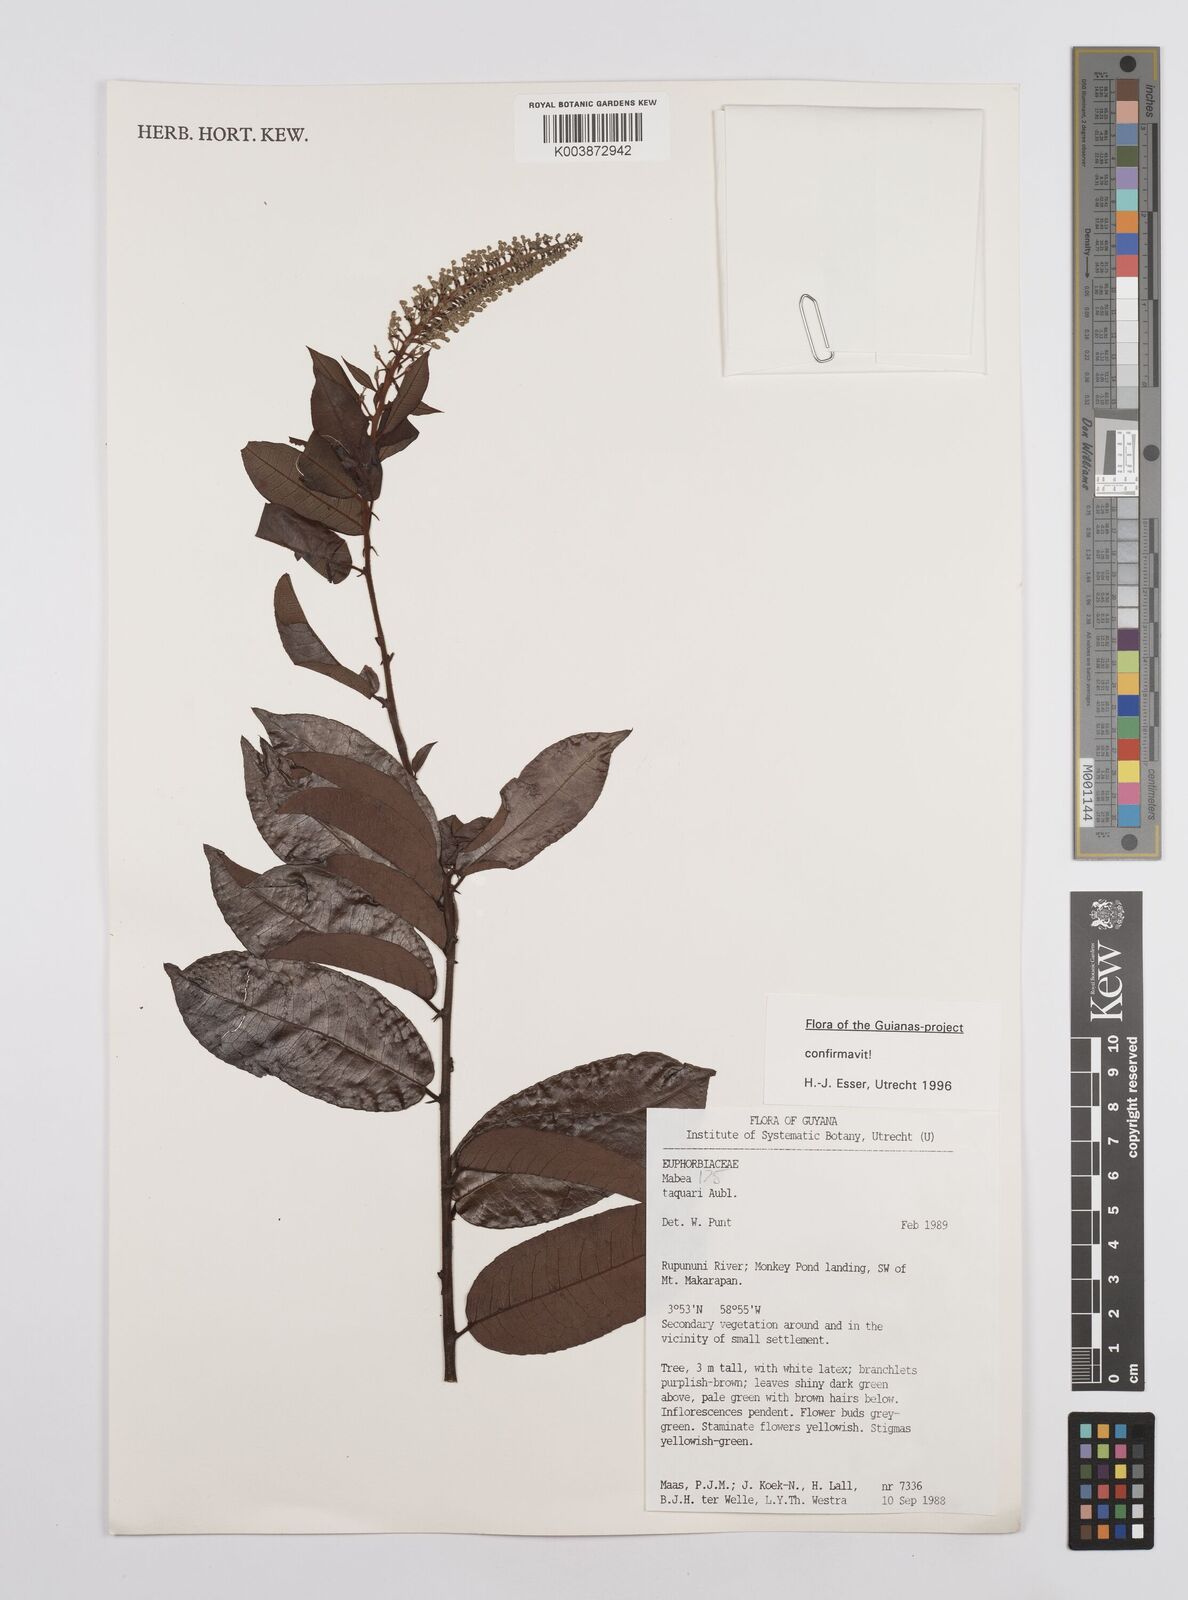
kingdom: Plantae
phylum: Tracheophyta
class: Magnoliopsida
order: Malpighiales
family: Euphorbiaceae
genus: Mabea
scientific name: Mabea taquari
